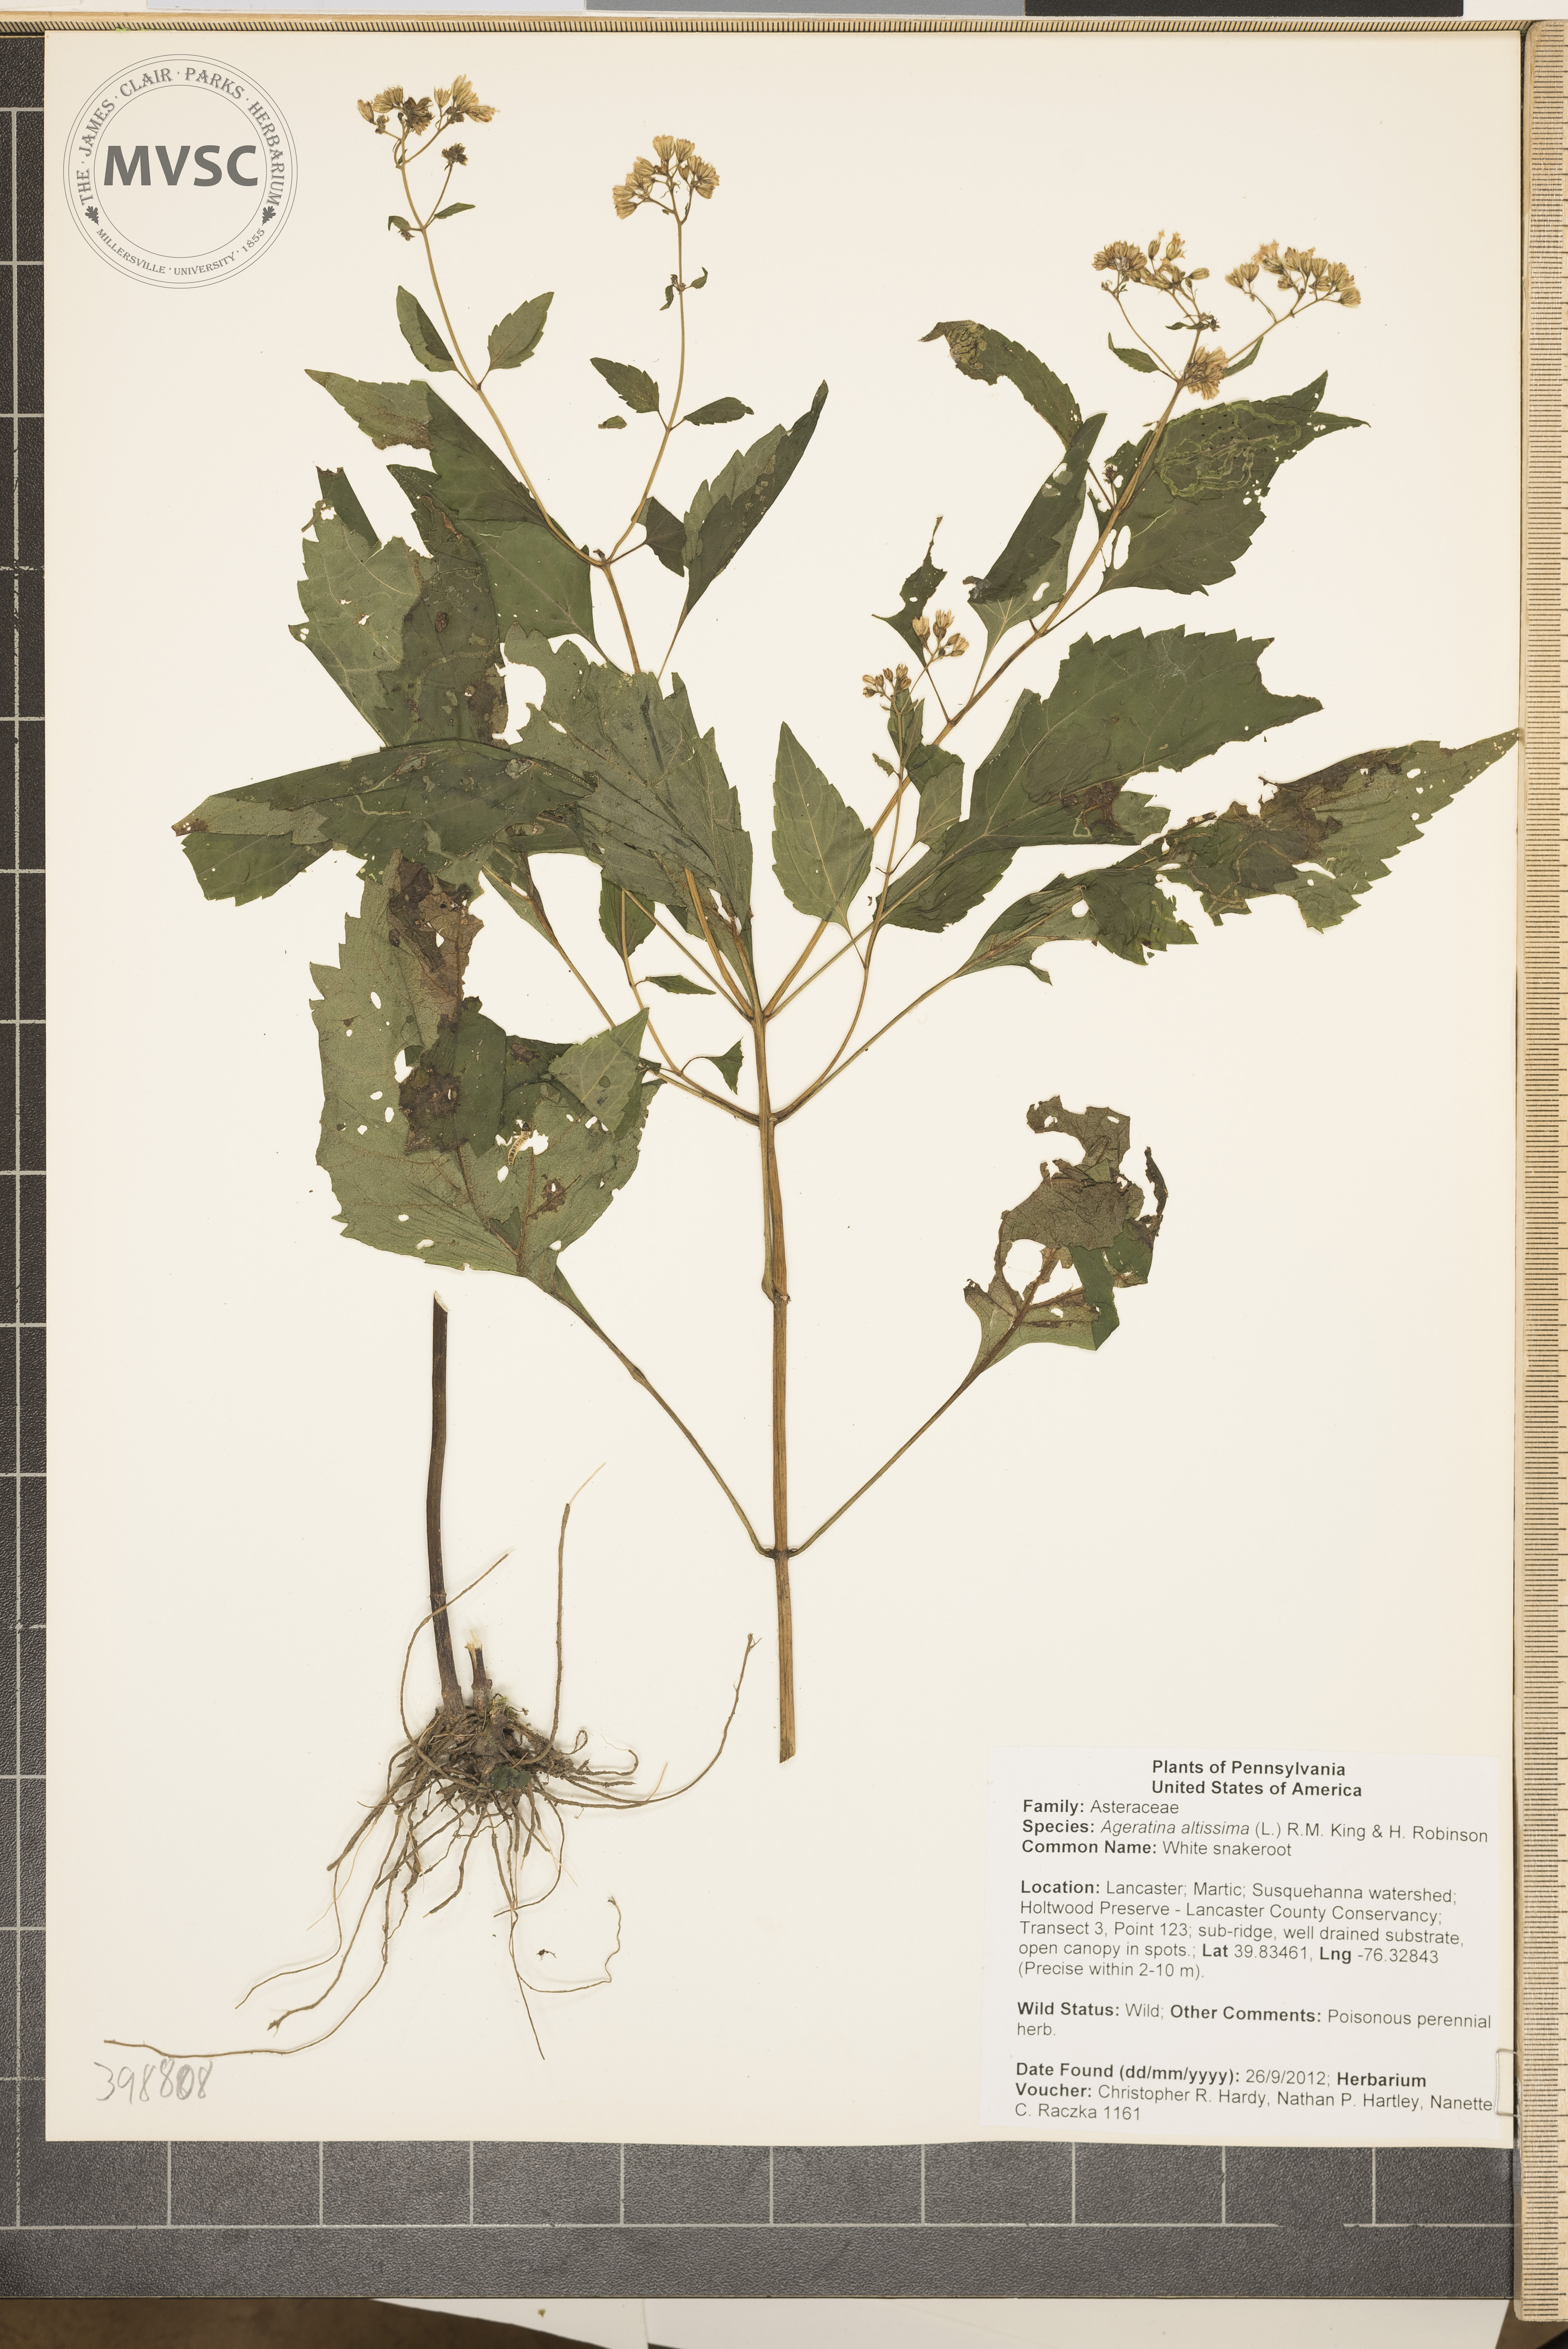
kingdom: Plantae
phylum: Tracheophyta
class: Magnoliopsida
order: Asterales
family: Asteraceae
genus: Ageratina
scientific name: Ageratina altissima
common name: White snakeroot
